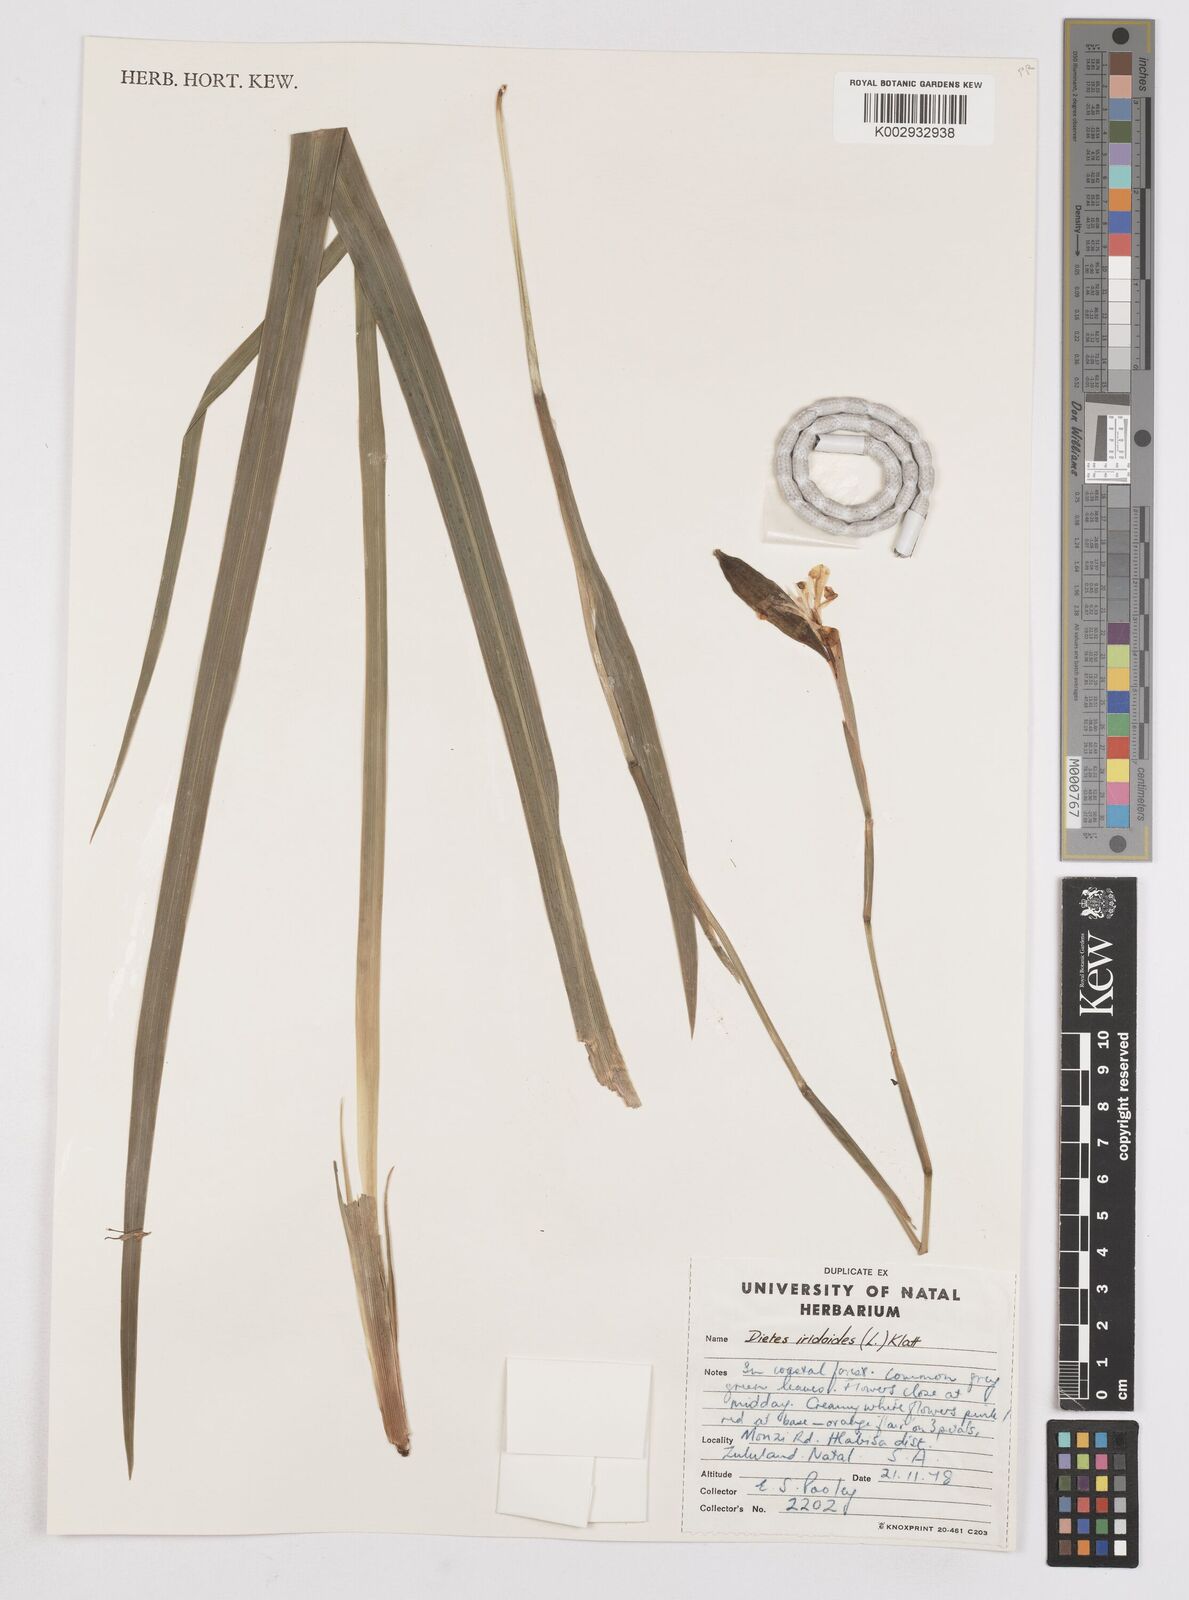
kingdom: Plantae
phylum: Tracheophyta
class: Liliopsida
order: Asparagales
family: Iridaceae
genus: Dietes
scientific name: Dietes iridioides
